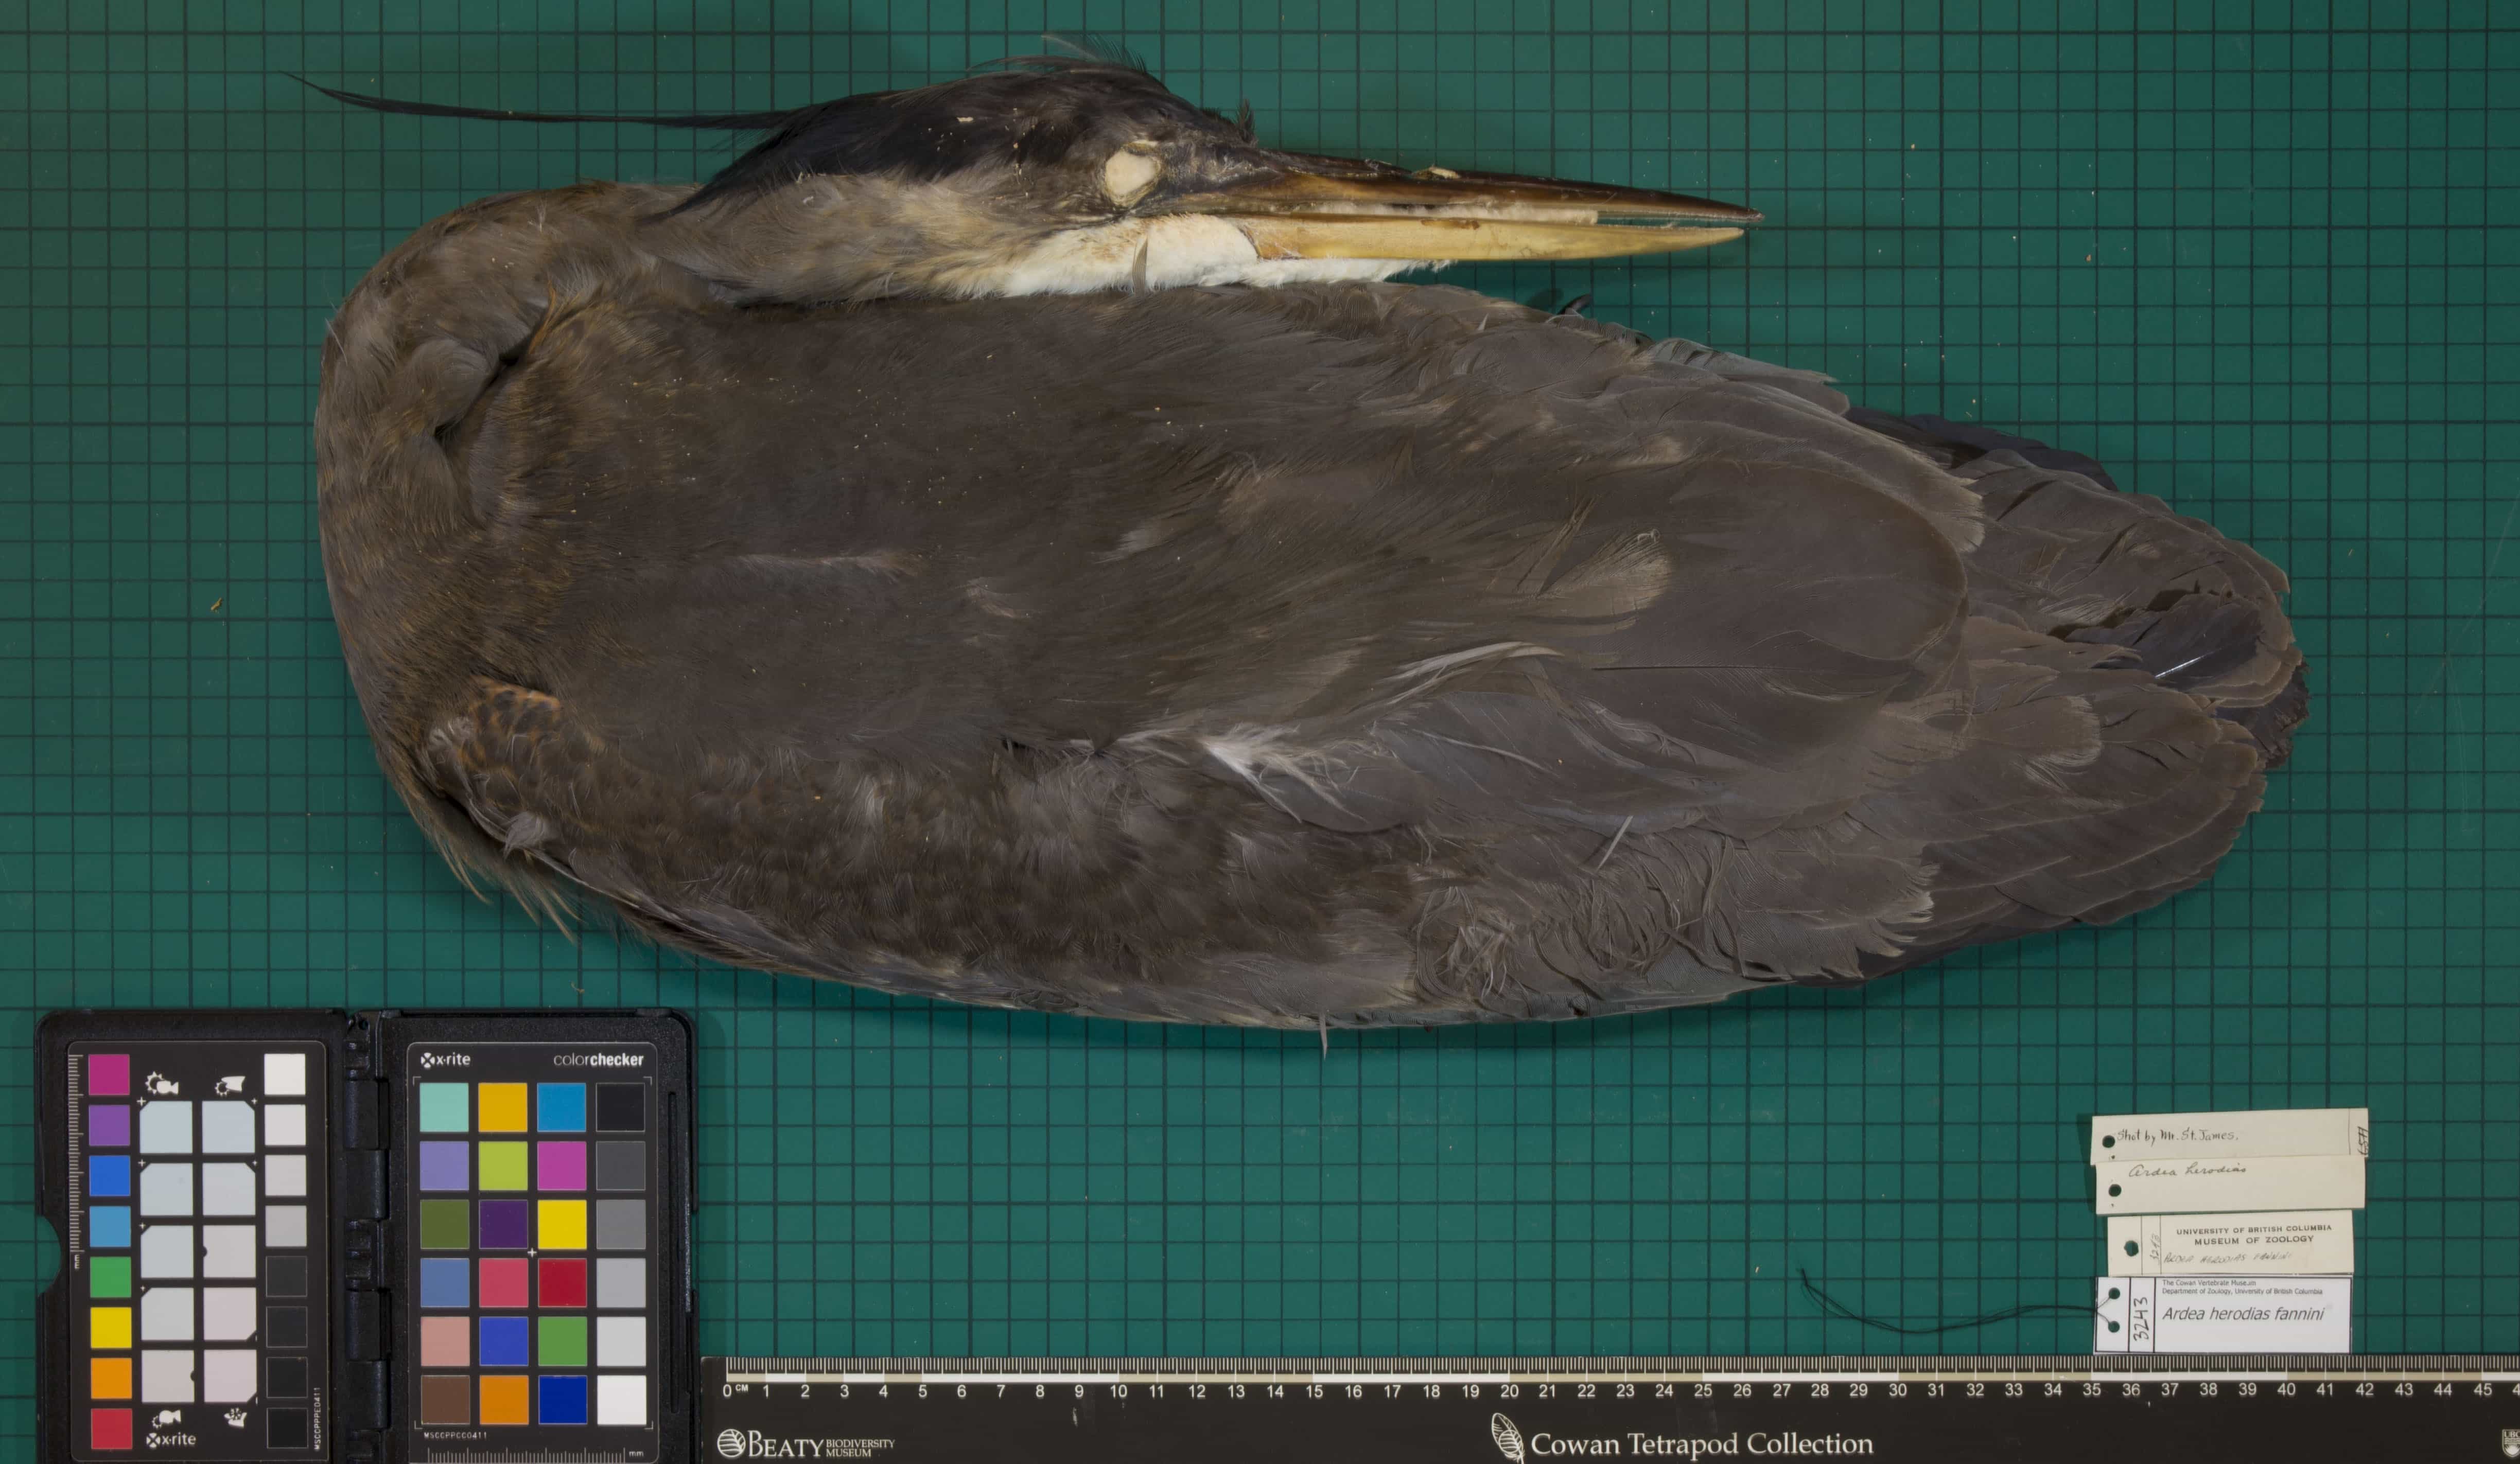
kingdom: Animalia
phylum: Chordata
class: Aves
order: Pelecaniformes
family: Ardeidae
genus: Ardea
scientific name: Ardea herodias
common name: Great Blue Heron
